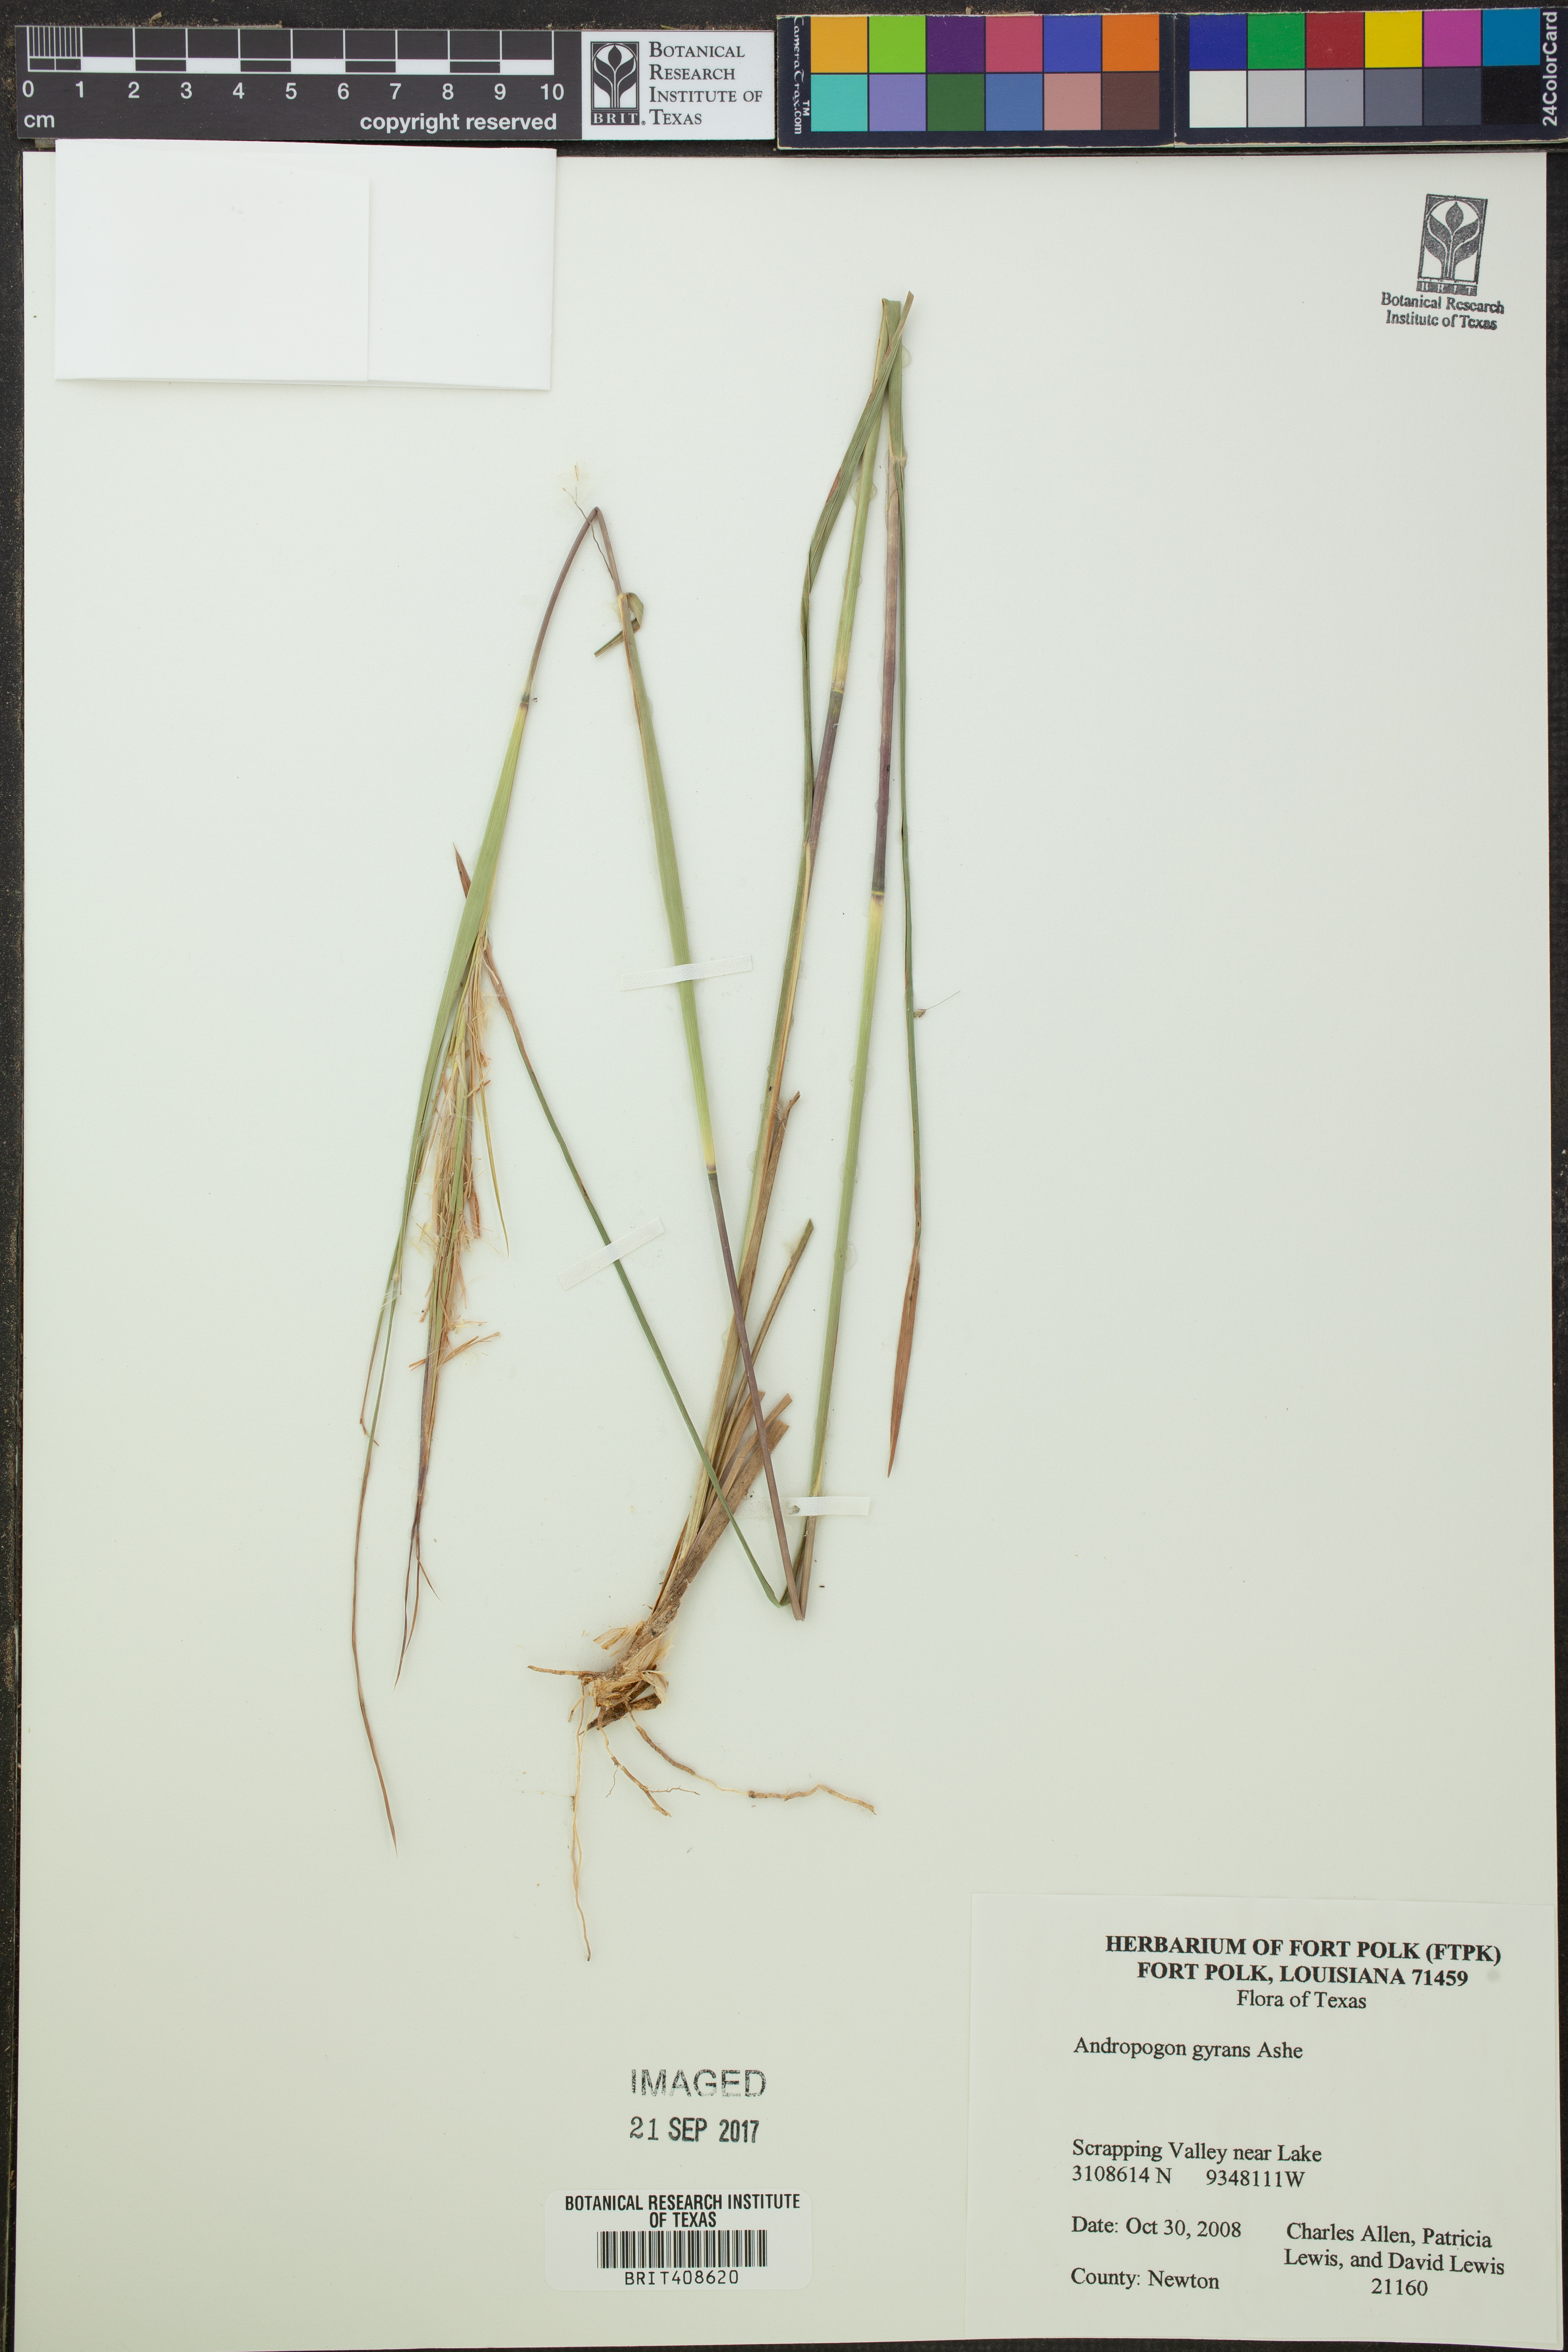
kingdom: Plantae
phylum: Tracheophyta
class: Liliopsida
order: Poales
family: Poaceae
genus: Andropogon
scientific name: Andropogon gyrans
